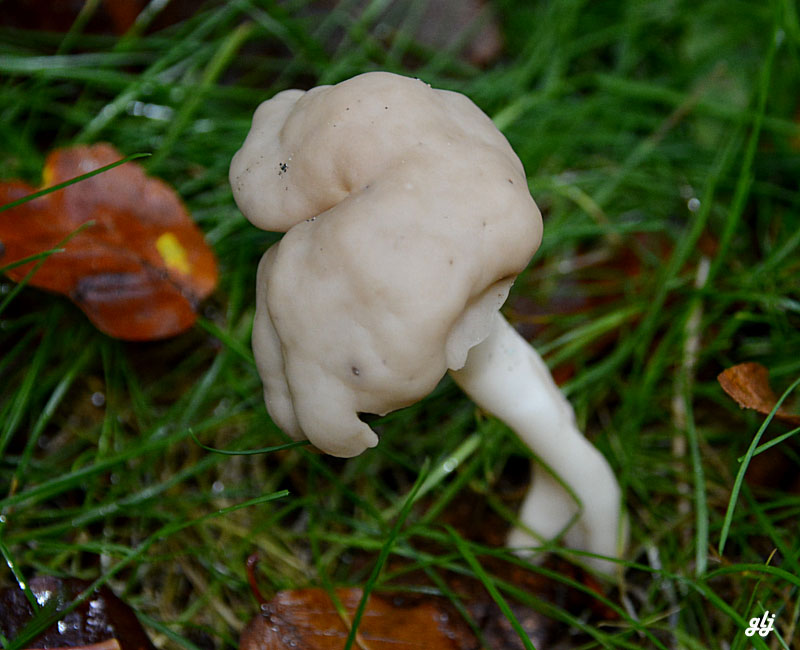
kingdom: Fungi
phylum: Ascomycota
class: Pezizomycetes
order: Pezizales
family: Helvellaceae
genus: Helvella
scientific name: Helvella elastica
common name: elastik-foldhat
